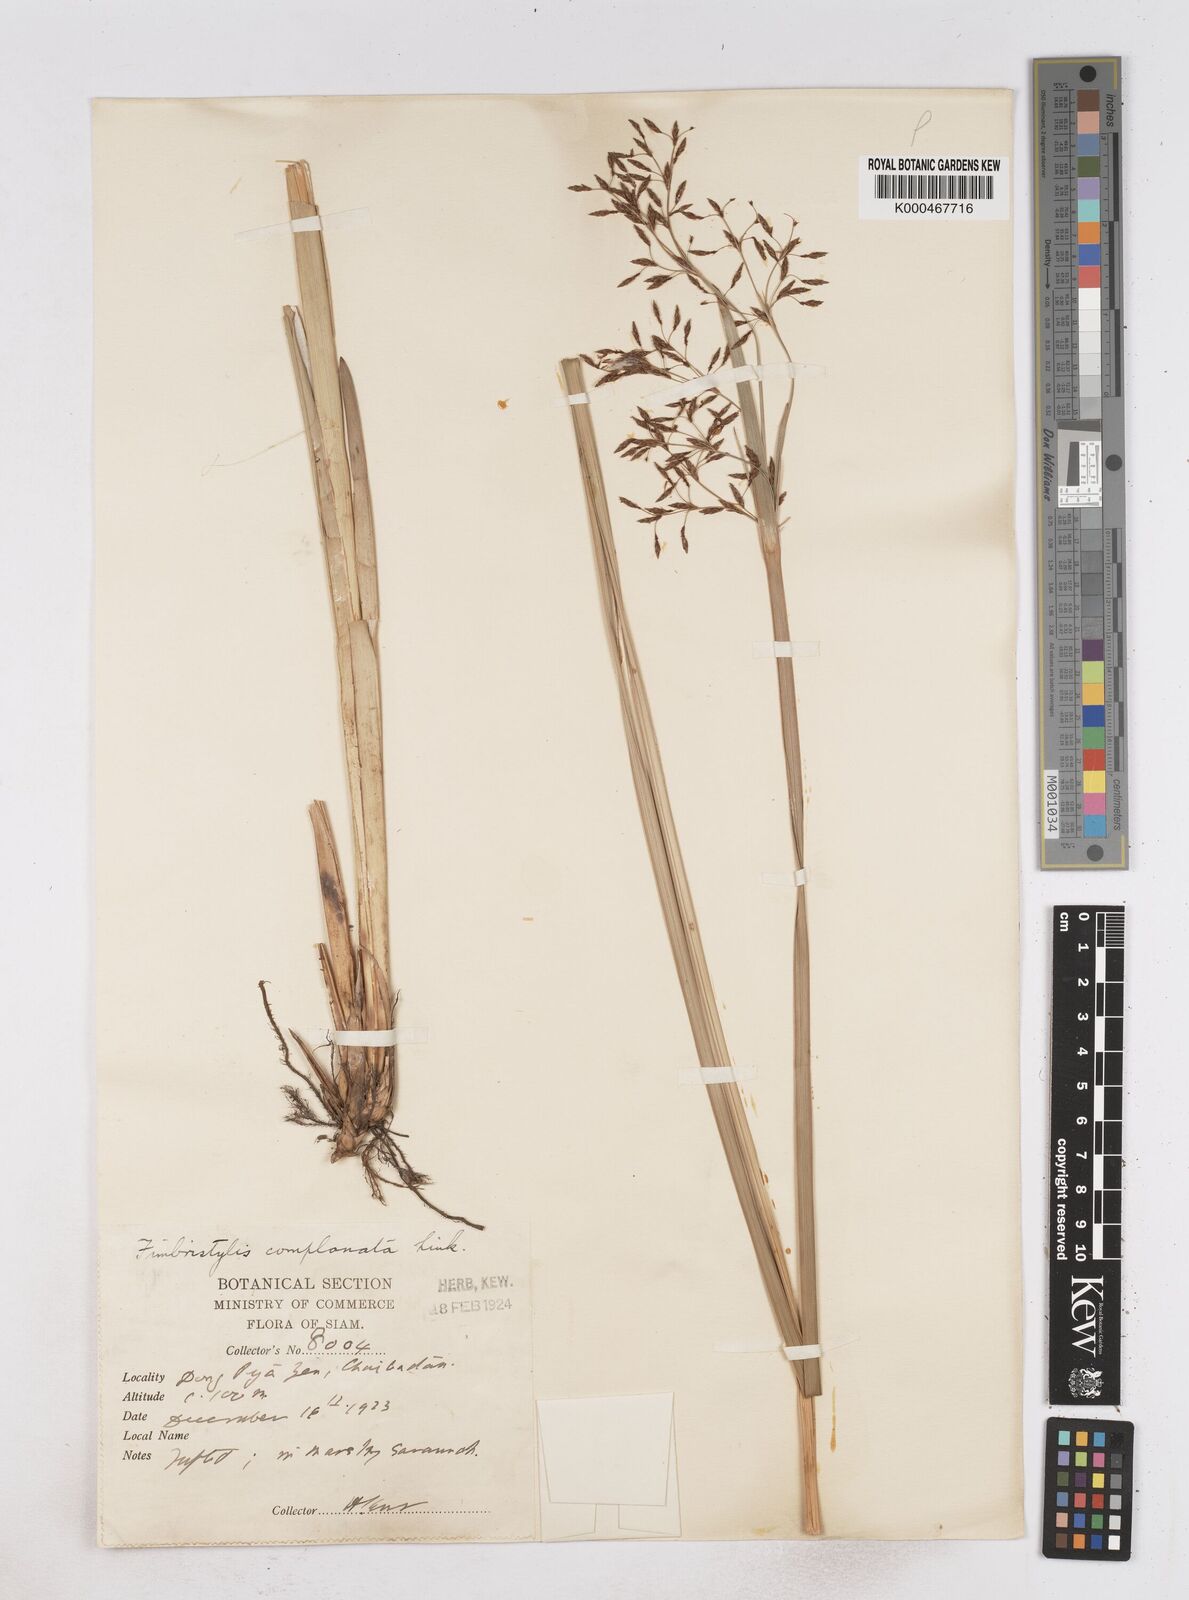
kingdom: Plantae
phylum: Tracheophyta
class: Liliopsida
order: Poales
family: Cyperaceae
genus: Fimbristylis
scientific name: Fimbristylis complanata
